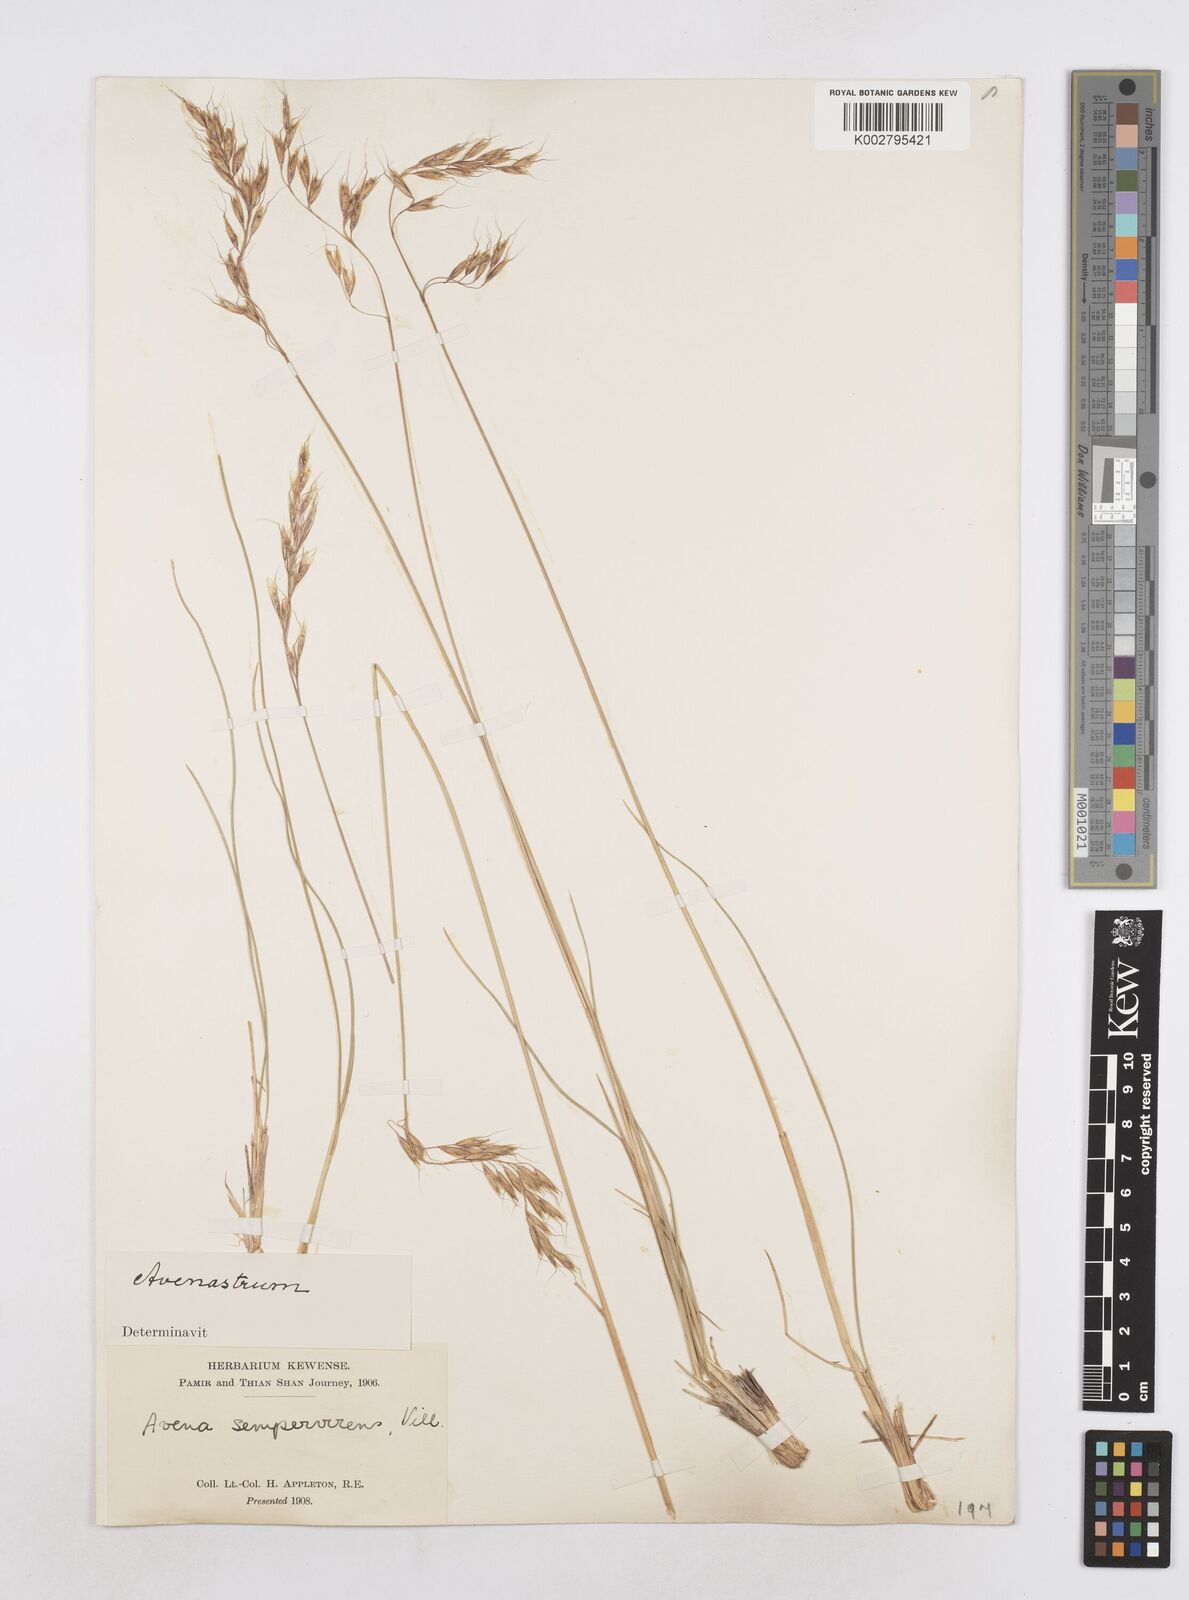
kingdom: Plantae
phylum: Tracheophyta
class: Liliopsida
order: Poales
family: Poaceae
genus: Helictotrichon
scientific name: Helictotrichon sempervirens
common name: Blue oat-grass
